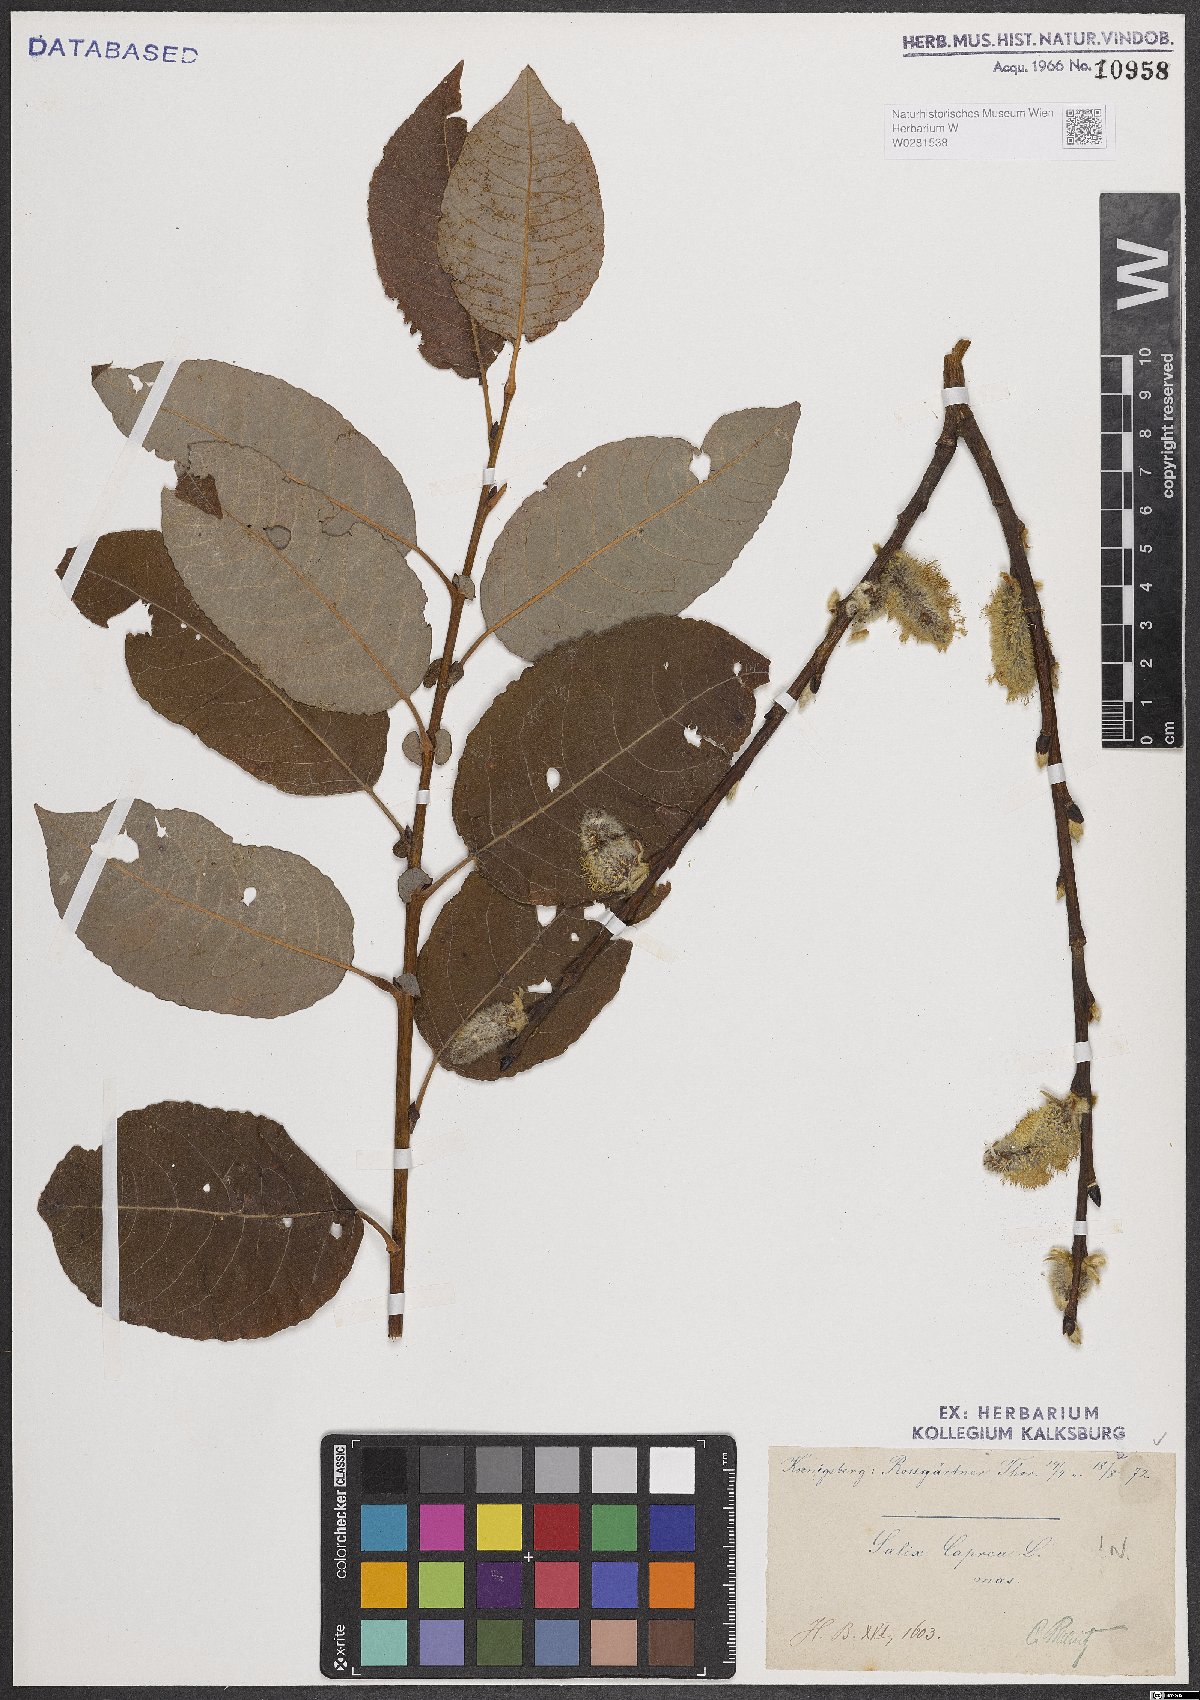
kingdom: Plantae
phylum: Tracheophyta
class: Magnoliopsida
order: Malpighiales
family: Salicaceae
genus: Salix
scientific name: Salix caprea
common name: Goat willow
